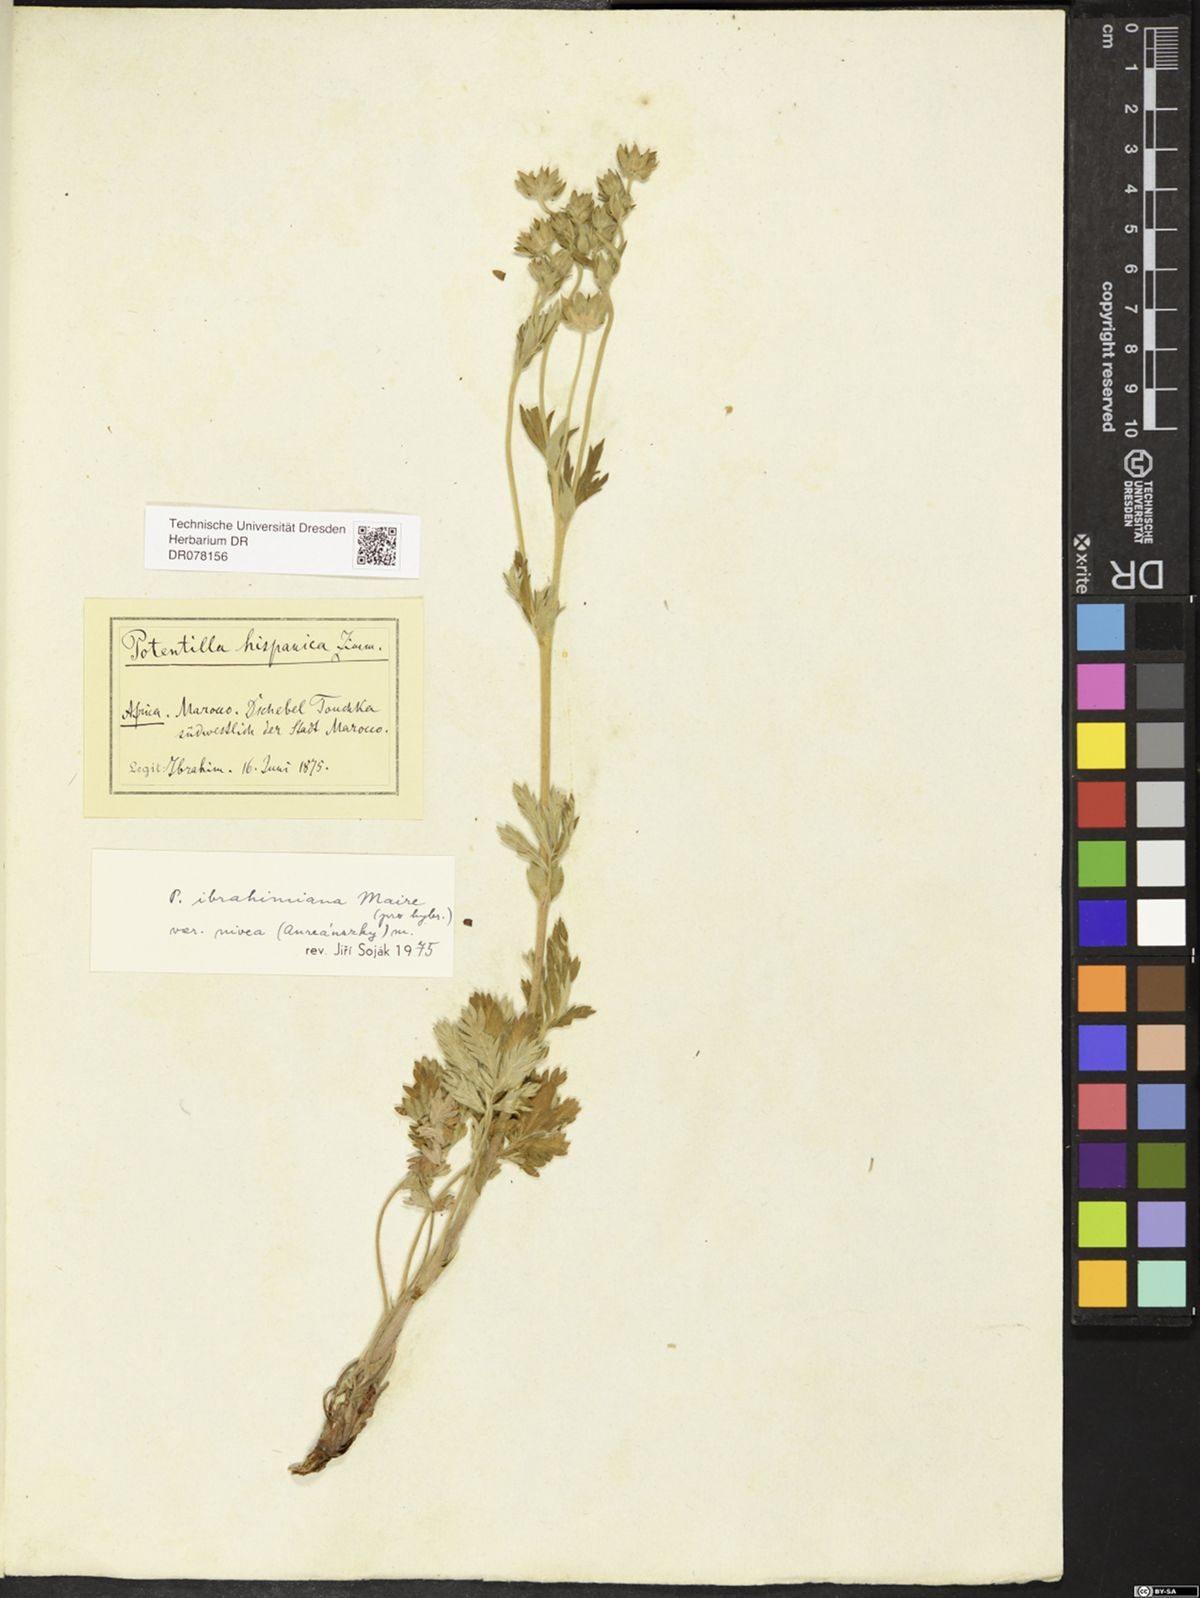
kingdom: Plantae
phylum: Tracheophyta
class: Magnoliopsida
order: Rosales
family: Rosaceae
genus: Potentilla
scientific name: Potentilla ibrahimiana
